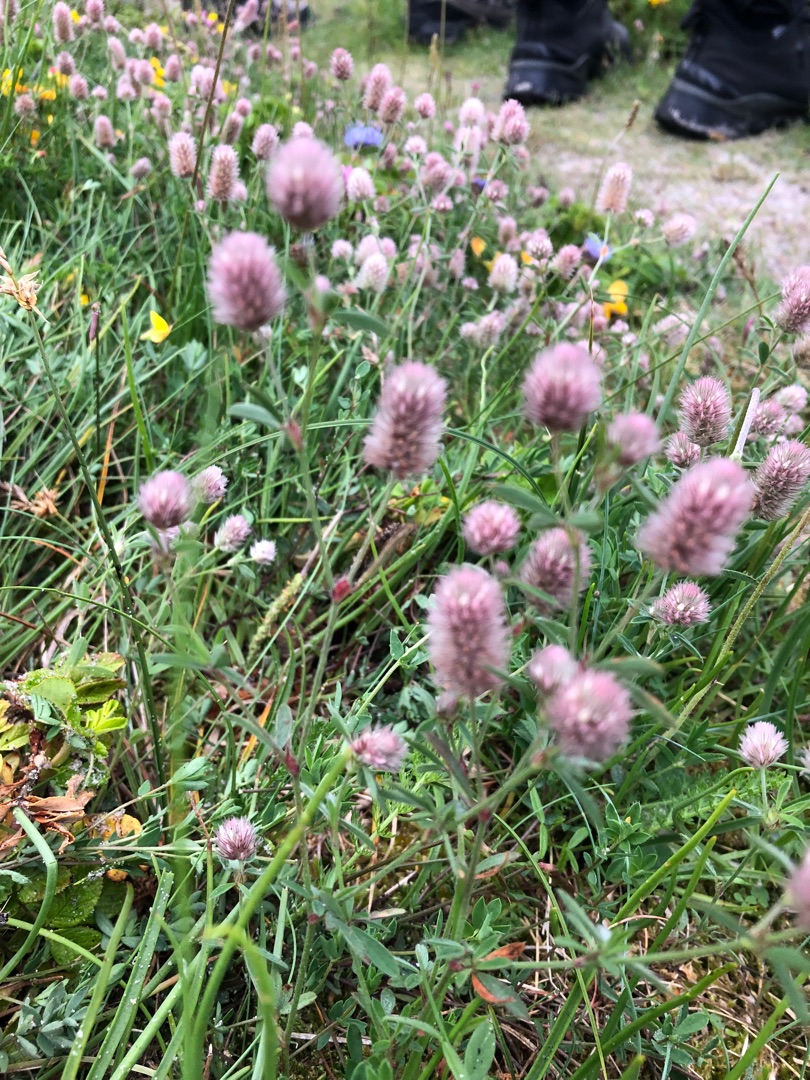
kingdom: Plantae
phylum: Tracheophyta
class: Magnoliopsida
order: Fabales
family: Fabaceae
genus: Trifolium
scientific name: Trifolium arvense
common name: Hare-kløver
